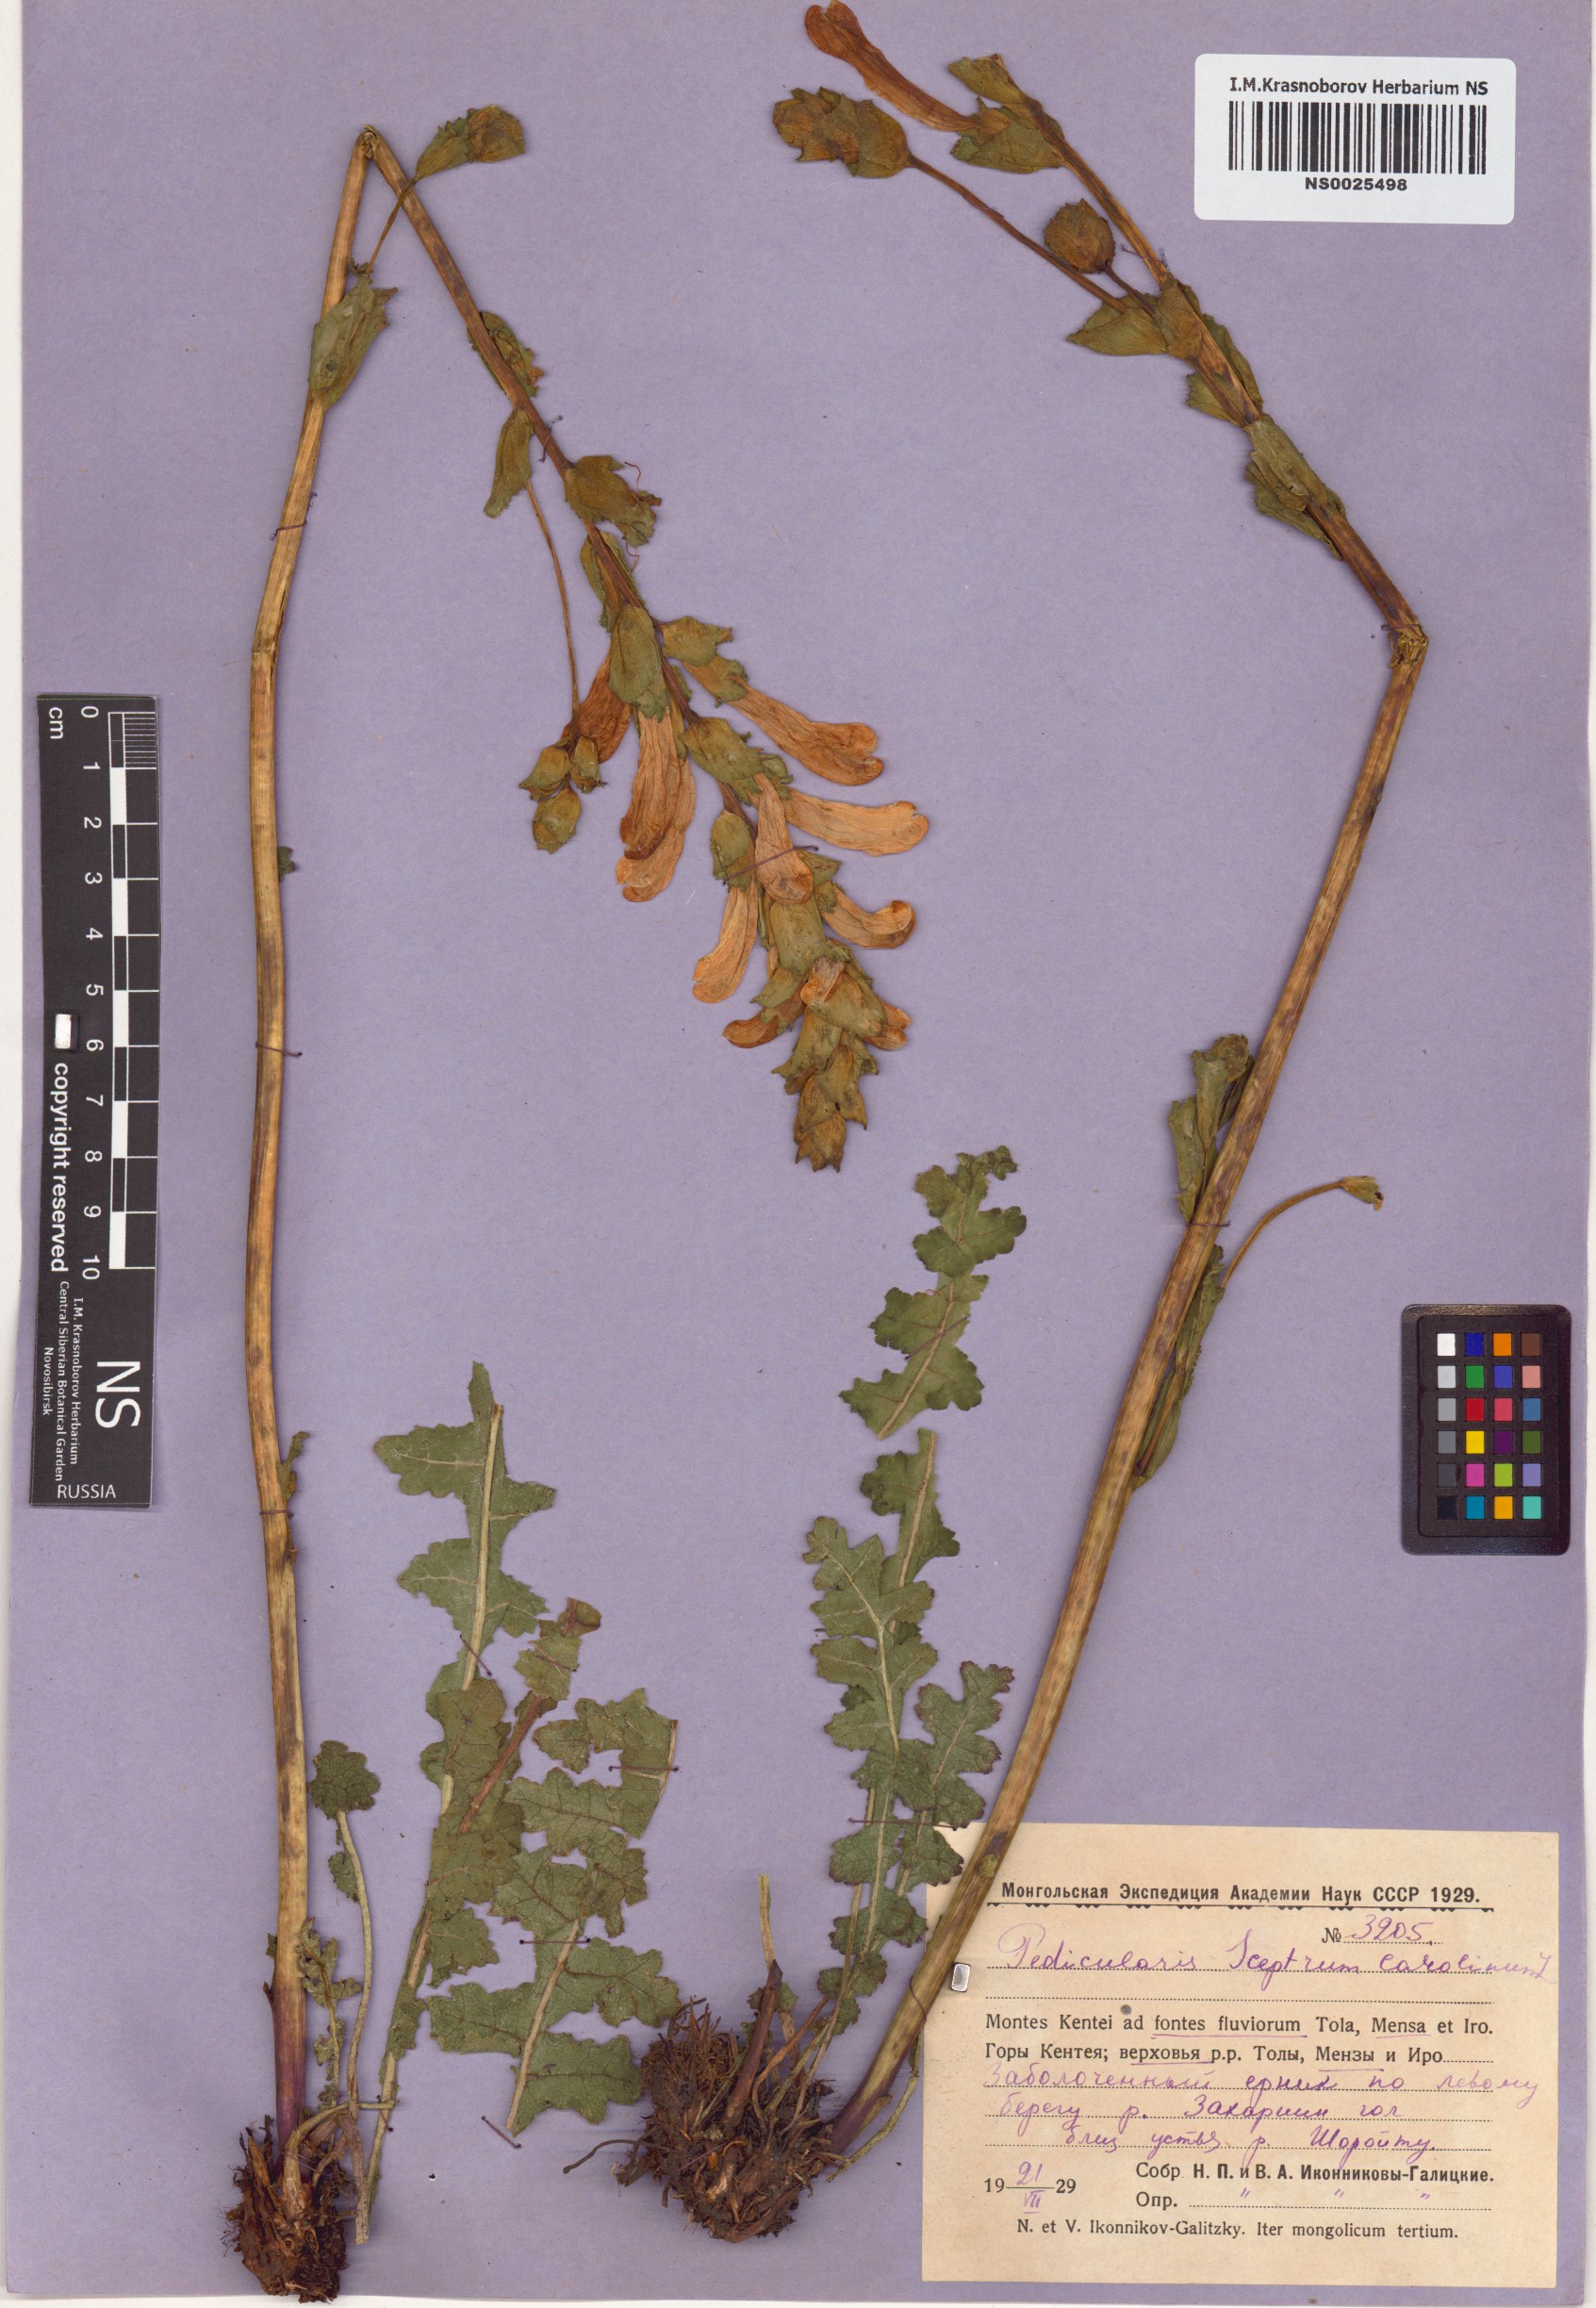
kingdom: Plantae
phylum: Tracheophyta
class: Magnoliopsida
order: Lamiales
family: Orobanchaceae
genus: Pedicularis
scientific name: Pedicularis sceptrum-carolinum
